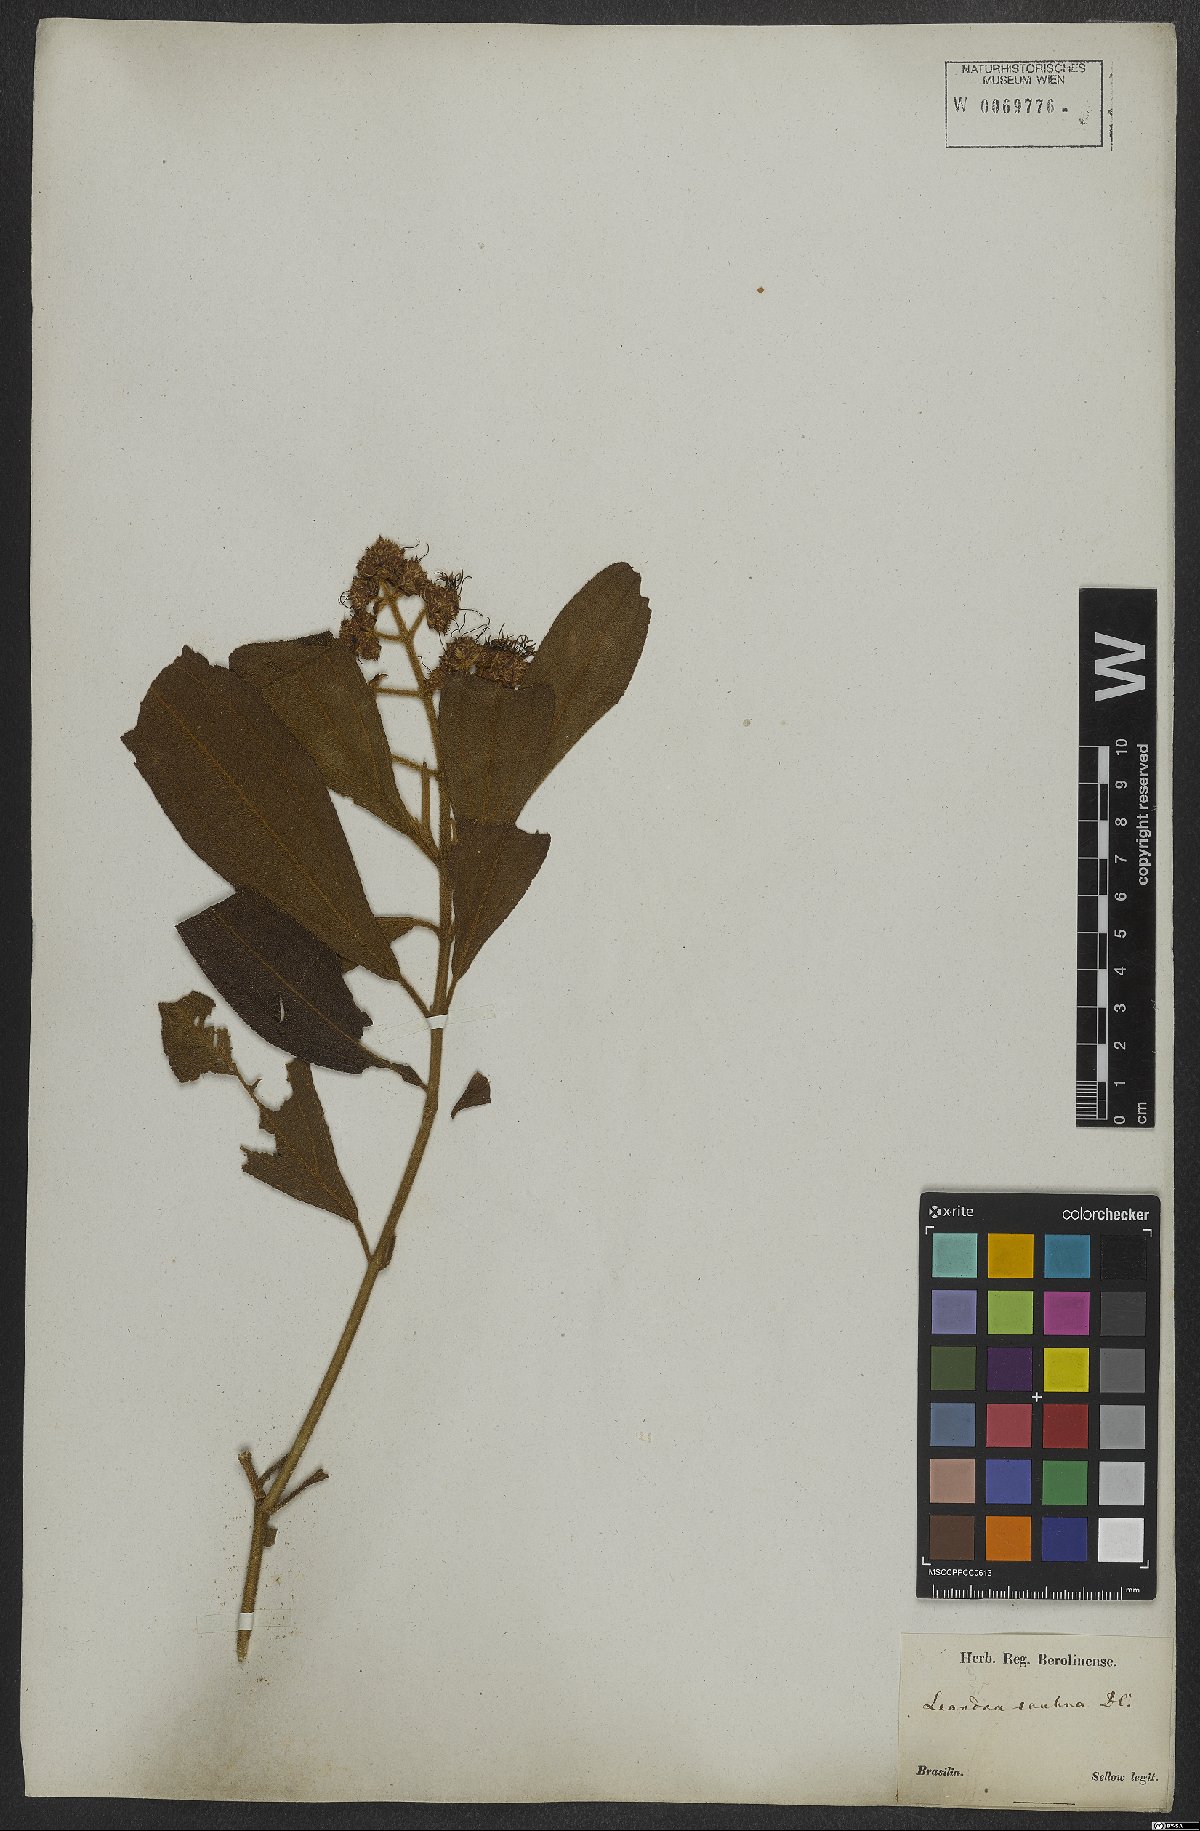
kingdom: Plantae
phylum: Tracheophyta
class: Magnoliopsida
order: Myrtales
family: Melastomataceae
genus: Miconia
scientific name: Miconia melastomoides
